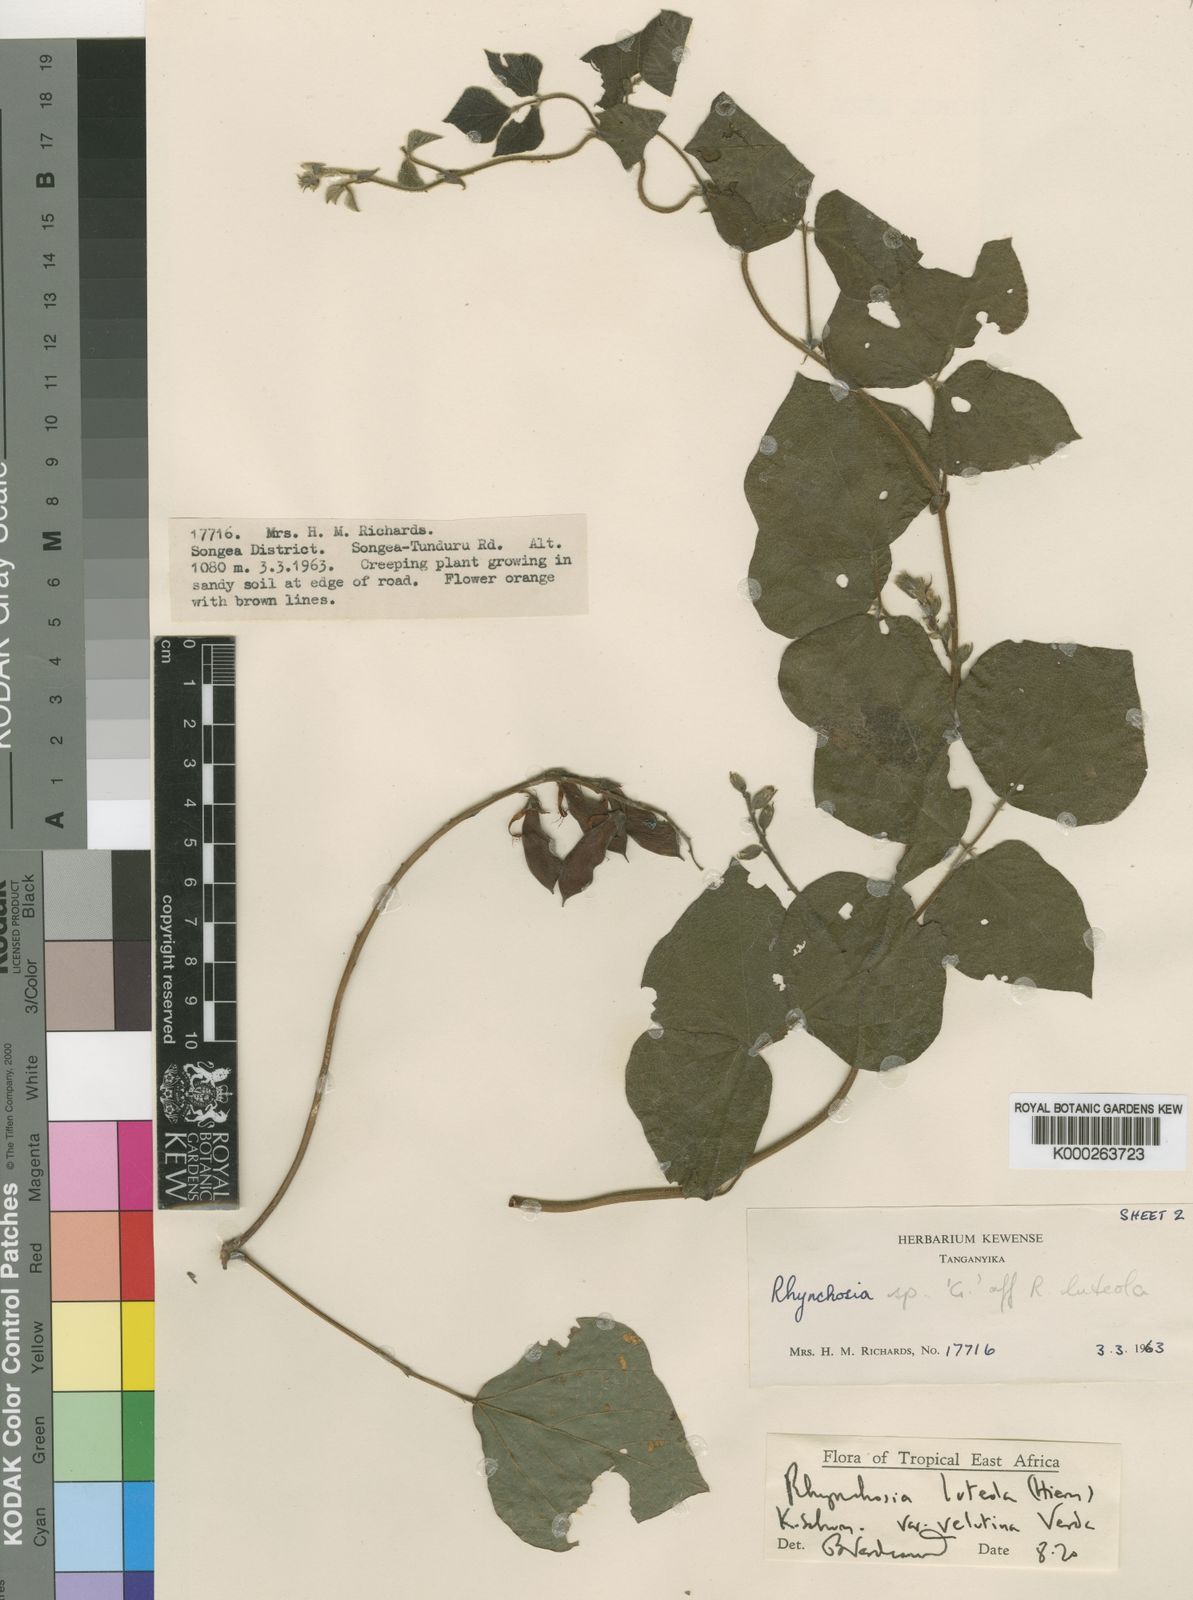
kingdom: Plantae
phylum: Tracheophyta
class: Magnoliopsida
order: Fabales
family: Fabaceae
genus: Rhynchosia
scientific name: Rhynchosia luteola
